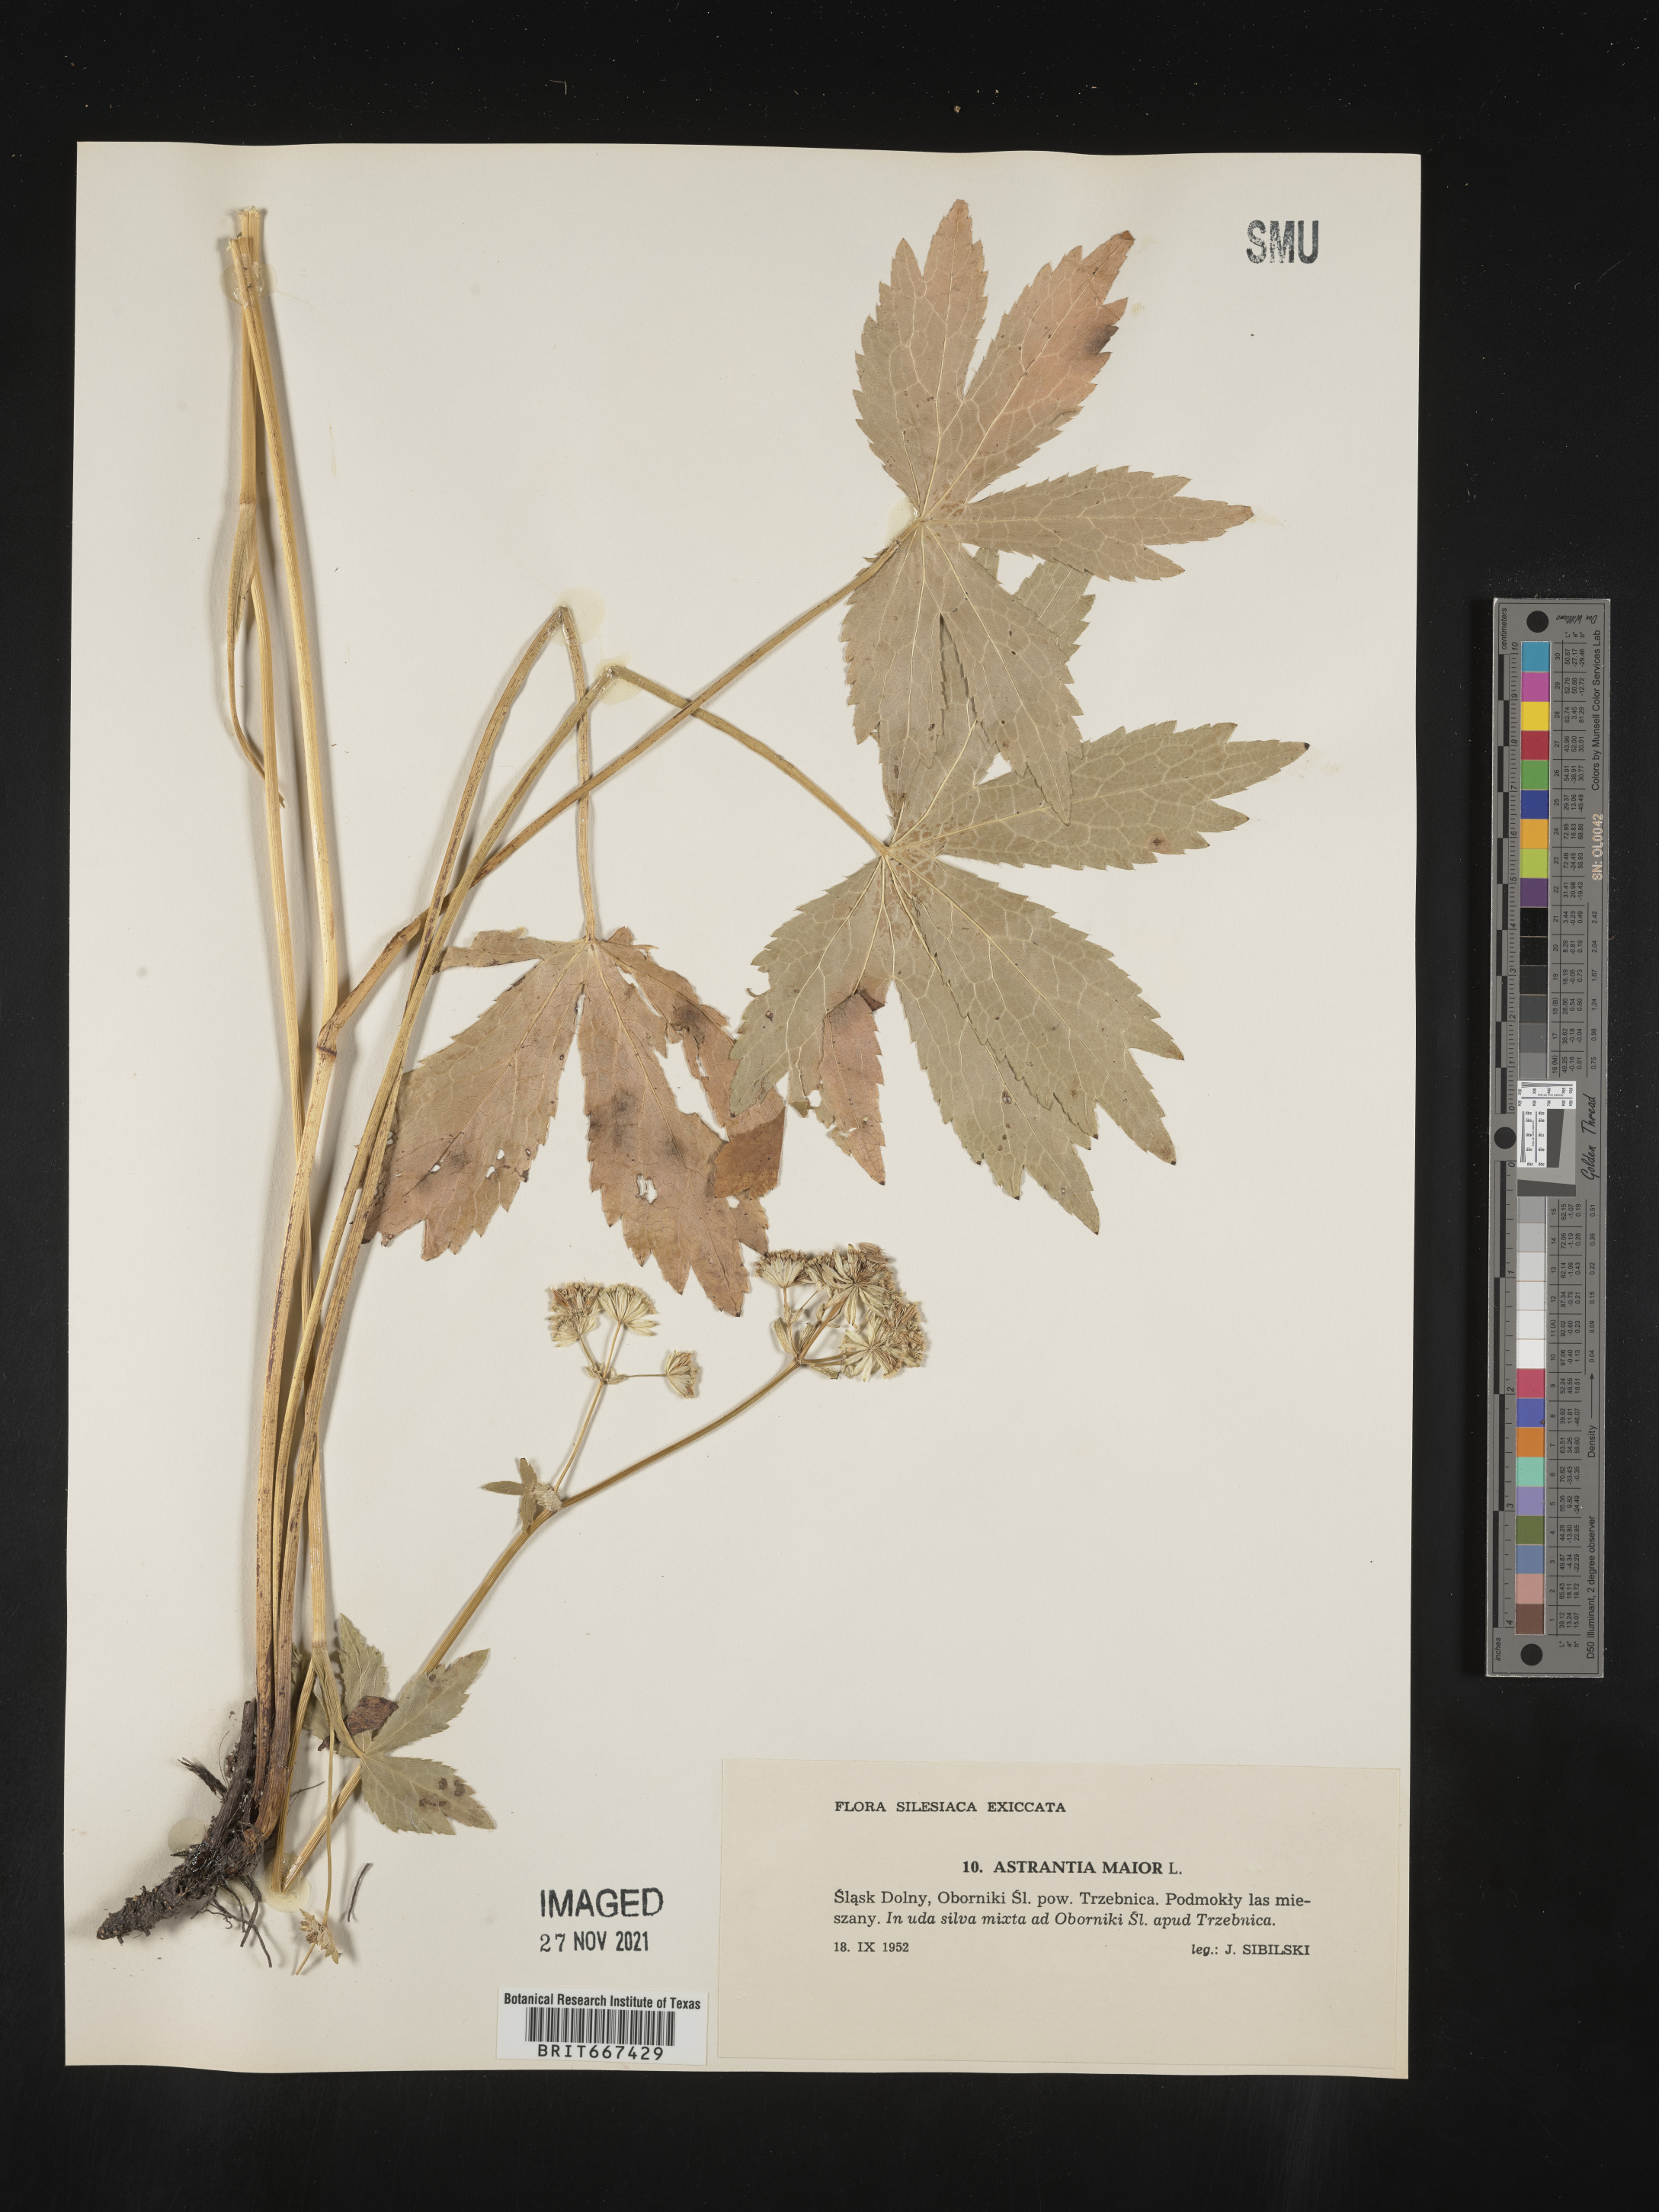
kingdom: Plantae
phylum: Tracheophyta
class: Magnoliopsida
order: Apiales
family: Apiaceae
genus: Astrantia
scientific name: Astrantia
